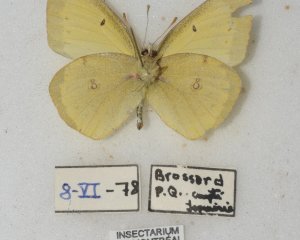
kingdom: Animalia
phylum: Arthropoda
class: Insecta
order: Lepidoptera
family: Pieridae
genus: Colias
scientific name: Colias philodice
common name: Clouded Sulphur
